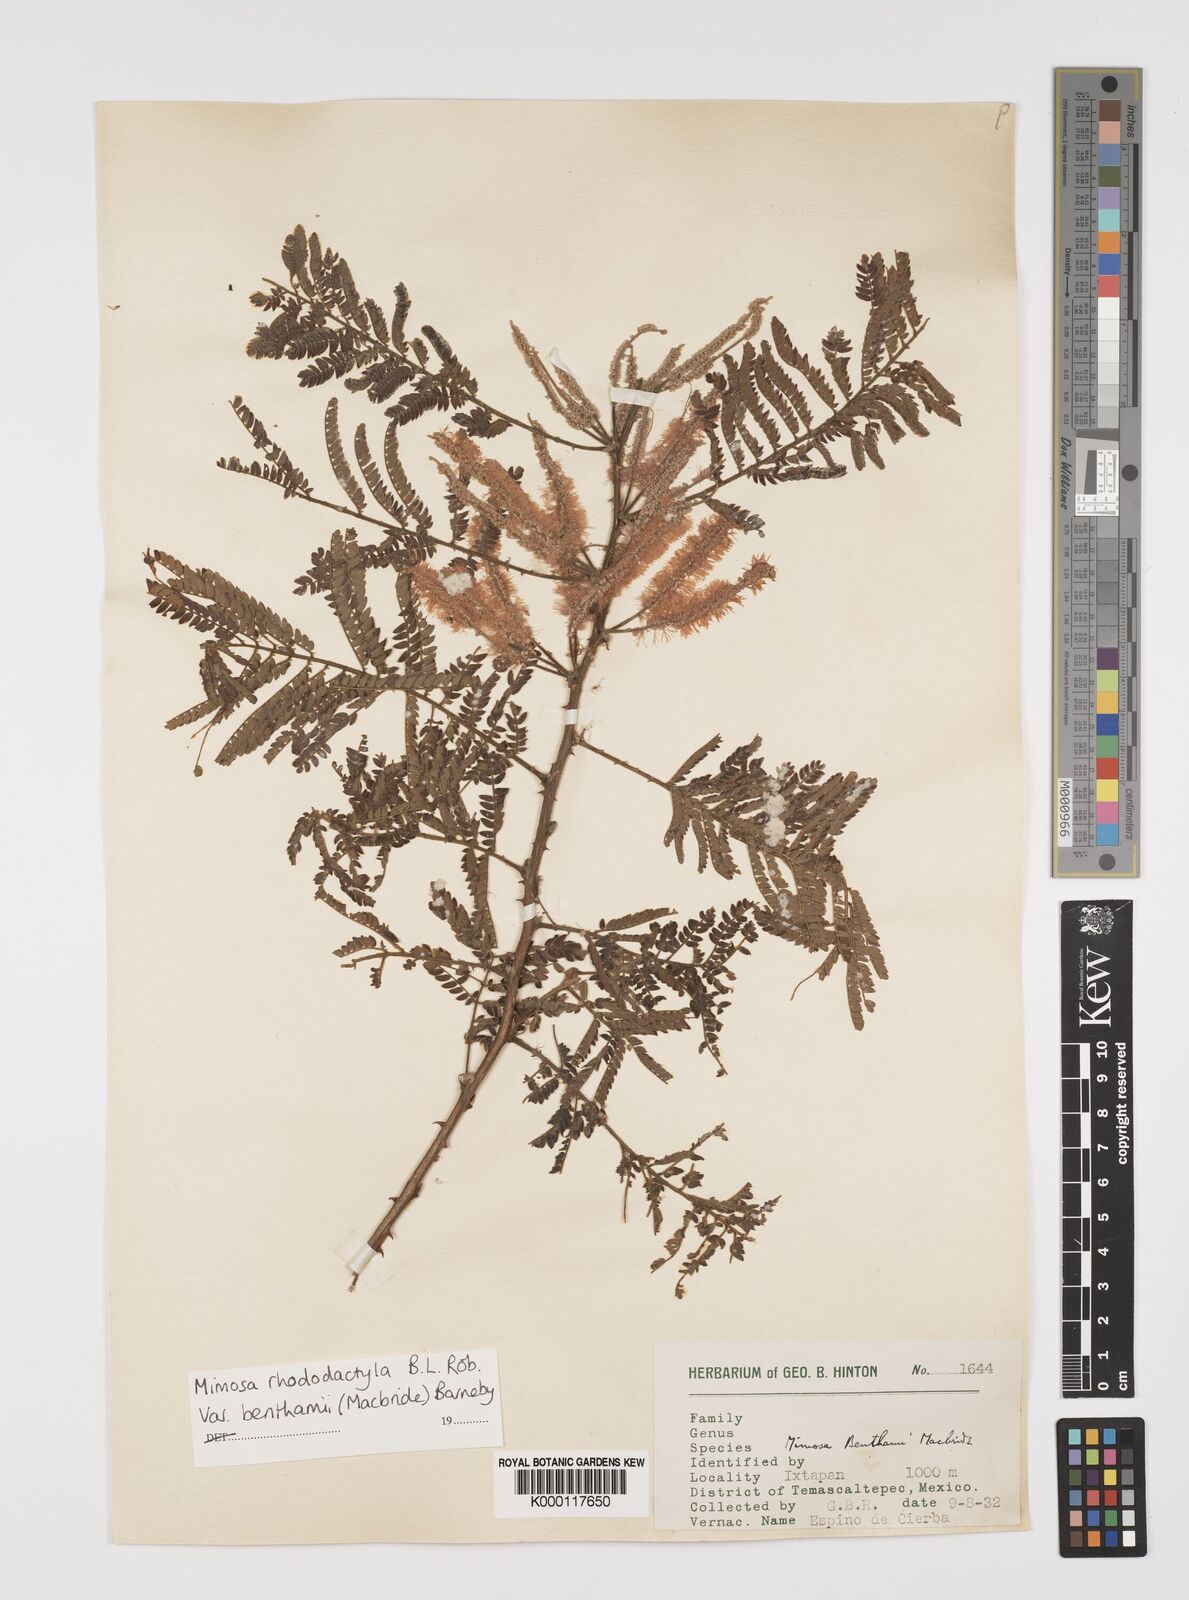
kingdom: Plantae
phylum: Tracheophyta
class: Magnoliopsida
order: Fabales
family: Fabaceae
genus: Mimosa
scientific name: Mimosa benthamii
